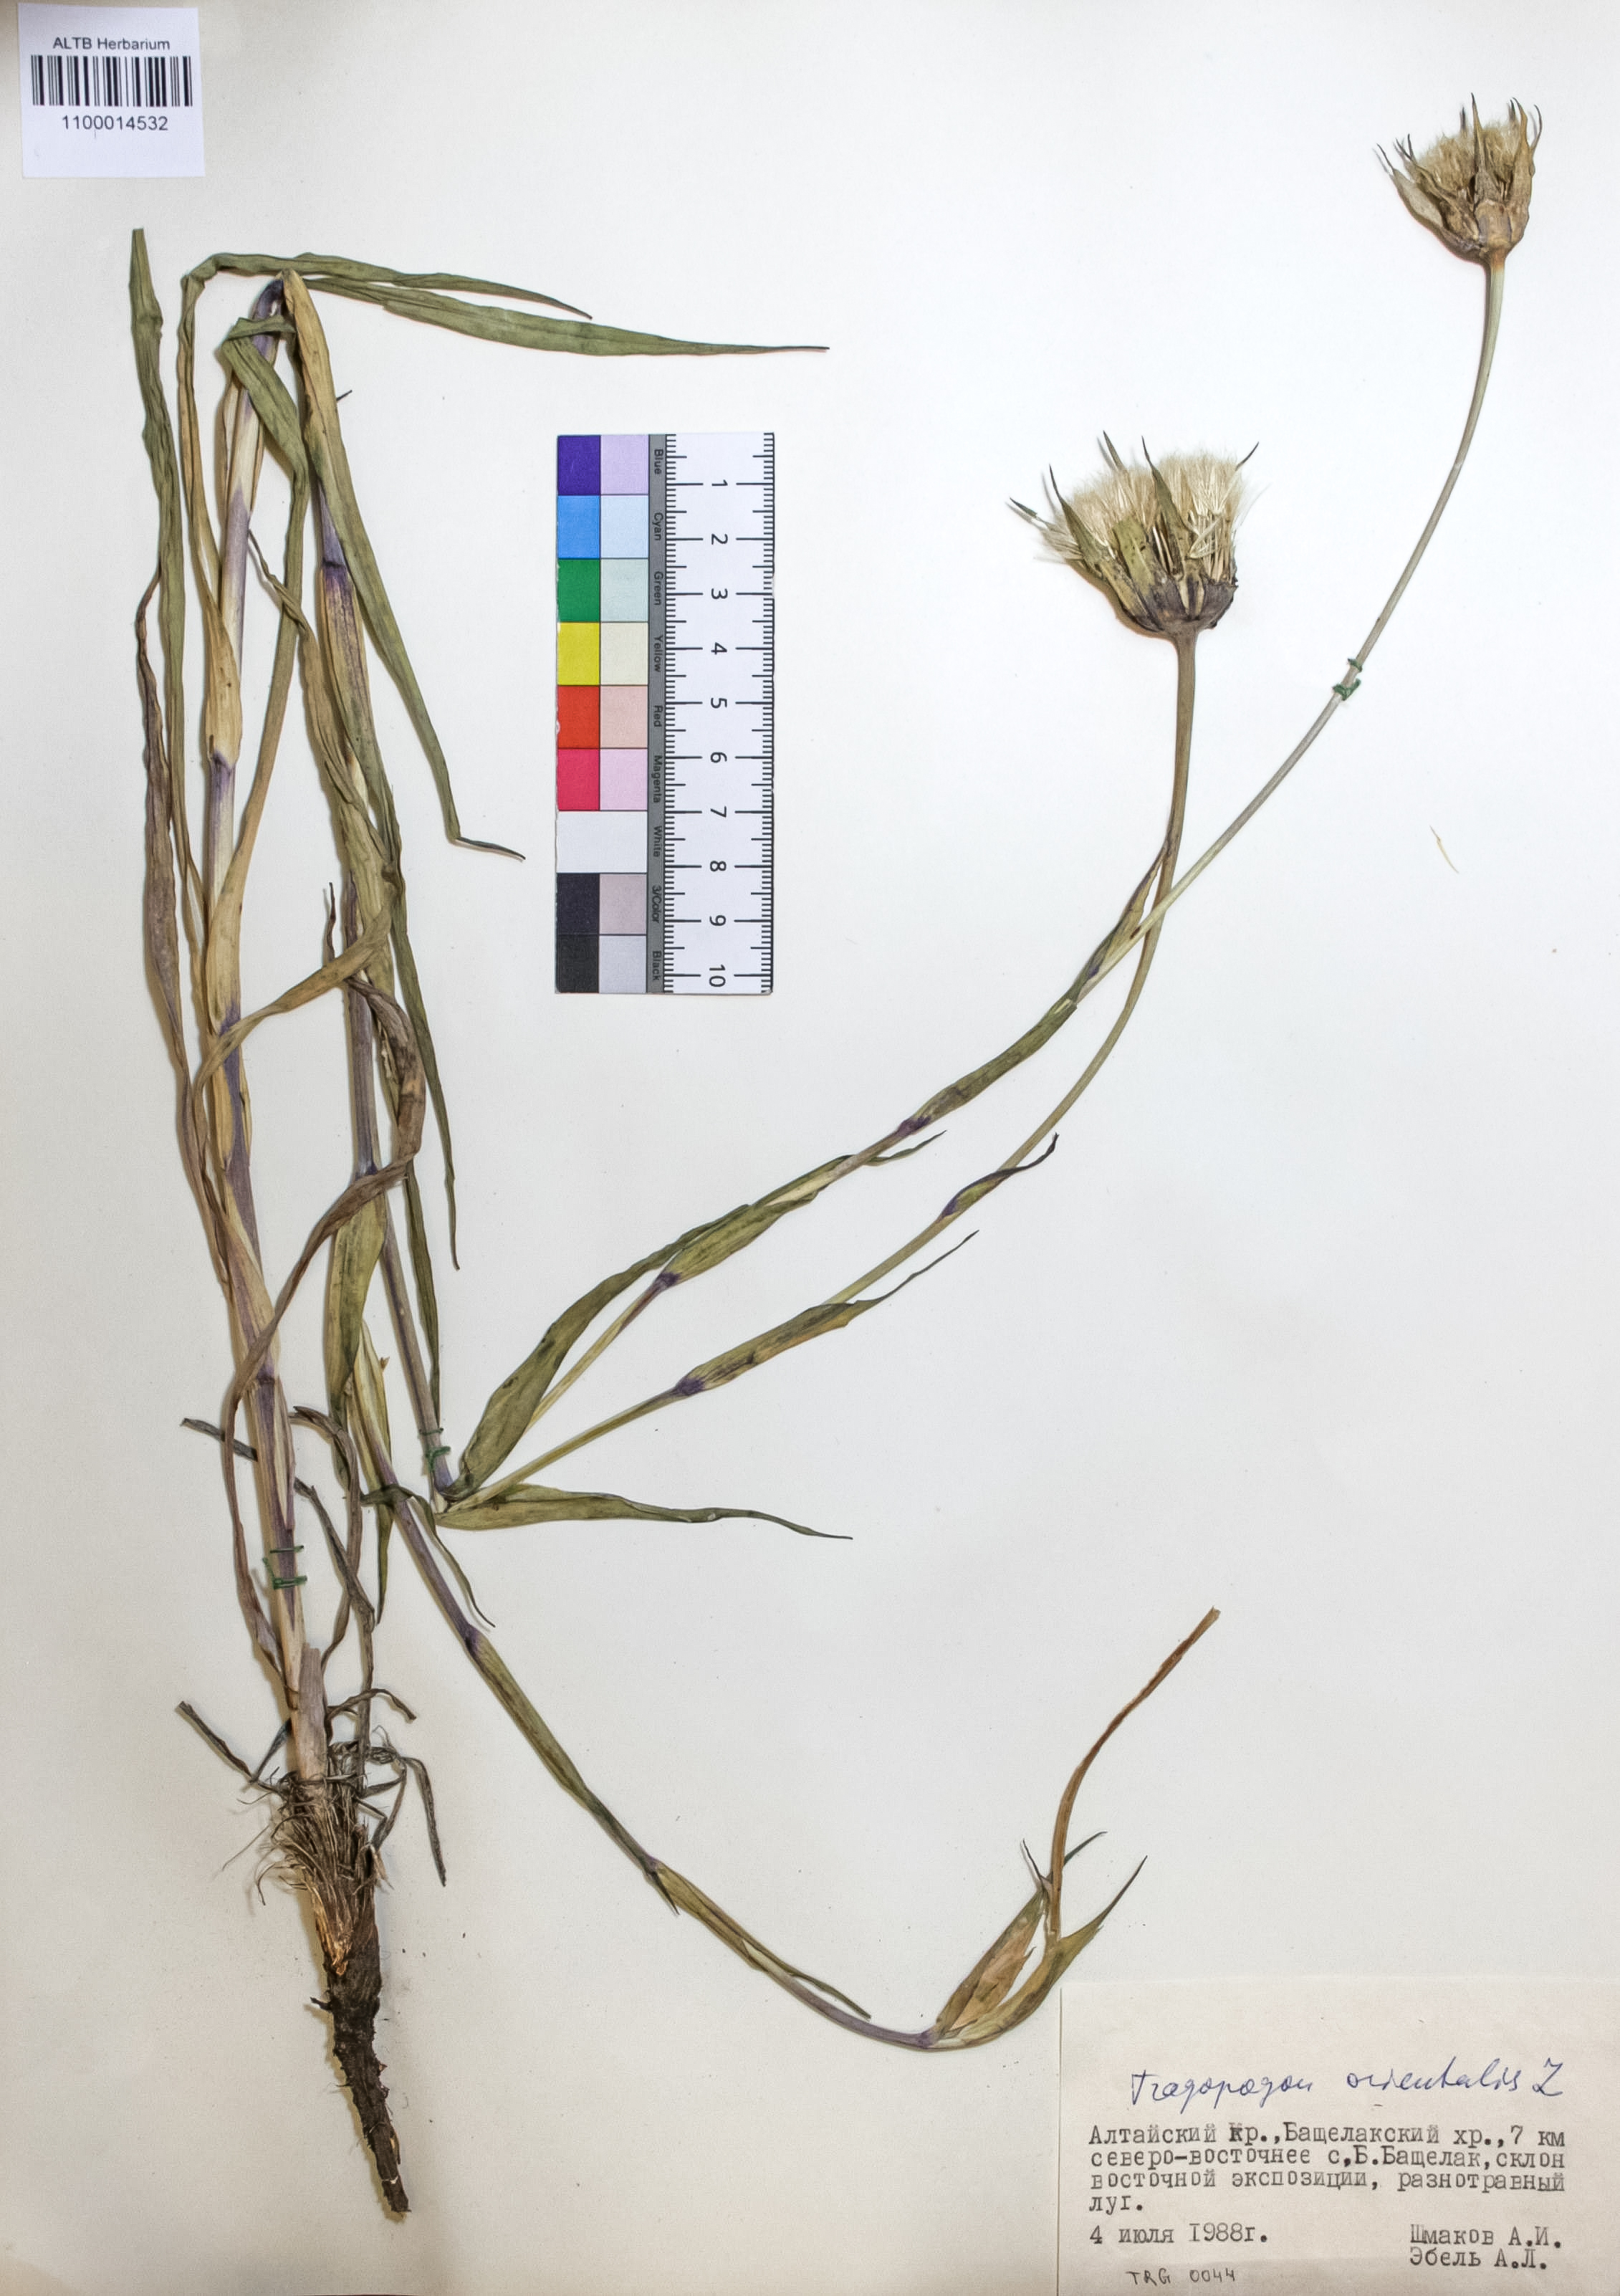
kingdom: Plantae
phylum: Tracheophyta
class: Magnoliopsida
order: Asterales
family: Asteraceae
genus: Tragopogon
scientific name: Tragopogon orientalis
